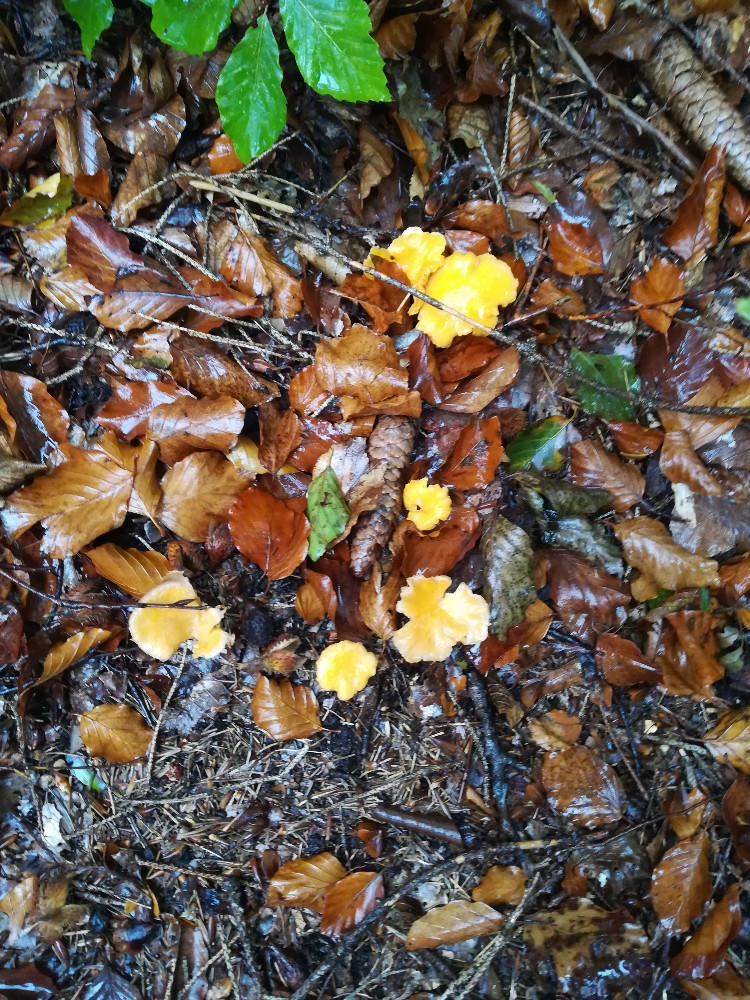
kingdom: Fungi
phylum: Basidiomycota
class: Agaricomycetes
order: Cantharellales
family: Hydnaceae
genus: Cantharellus
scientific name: Cantharellus cibarius
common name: almindelig kantarel
